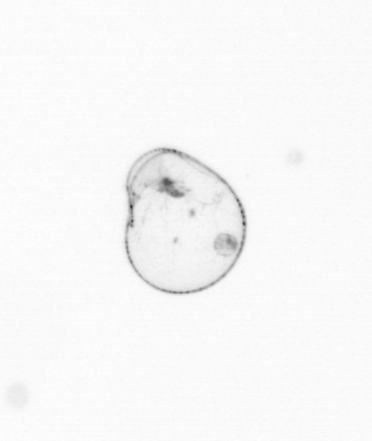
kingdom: Chromista
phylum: Myzozoa
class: Dinophyceae
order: Noctilucales
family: Noctilucaceae
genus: Noctiluca
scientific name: Noctiluca scintillans
